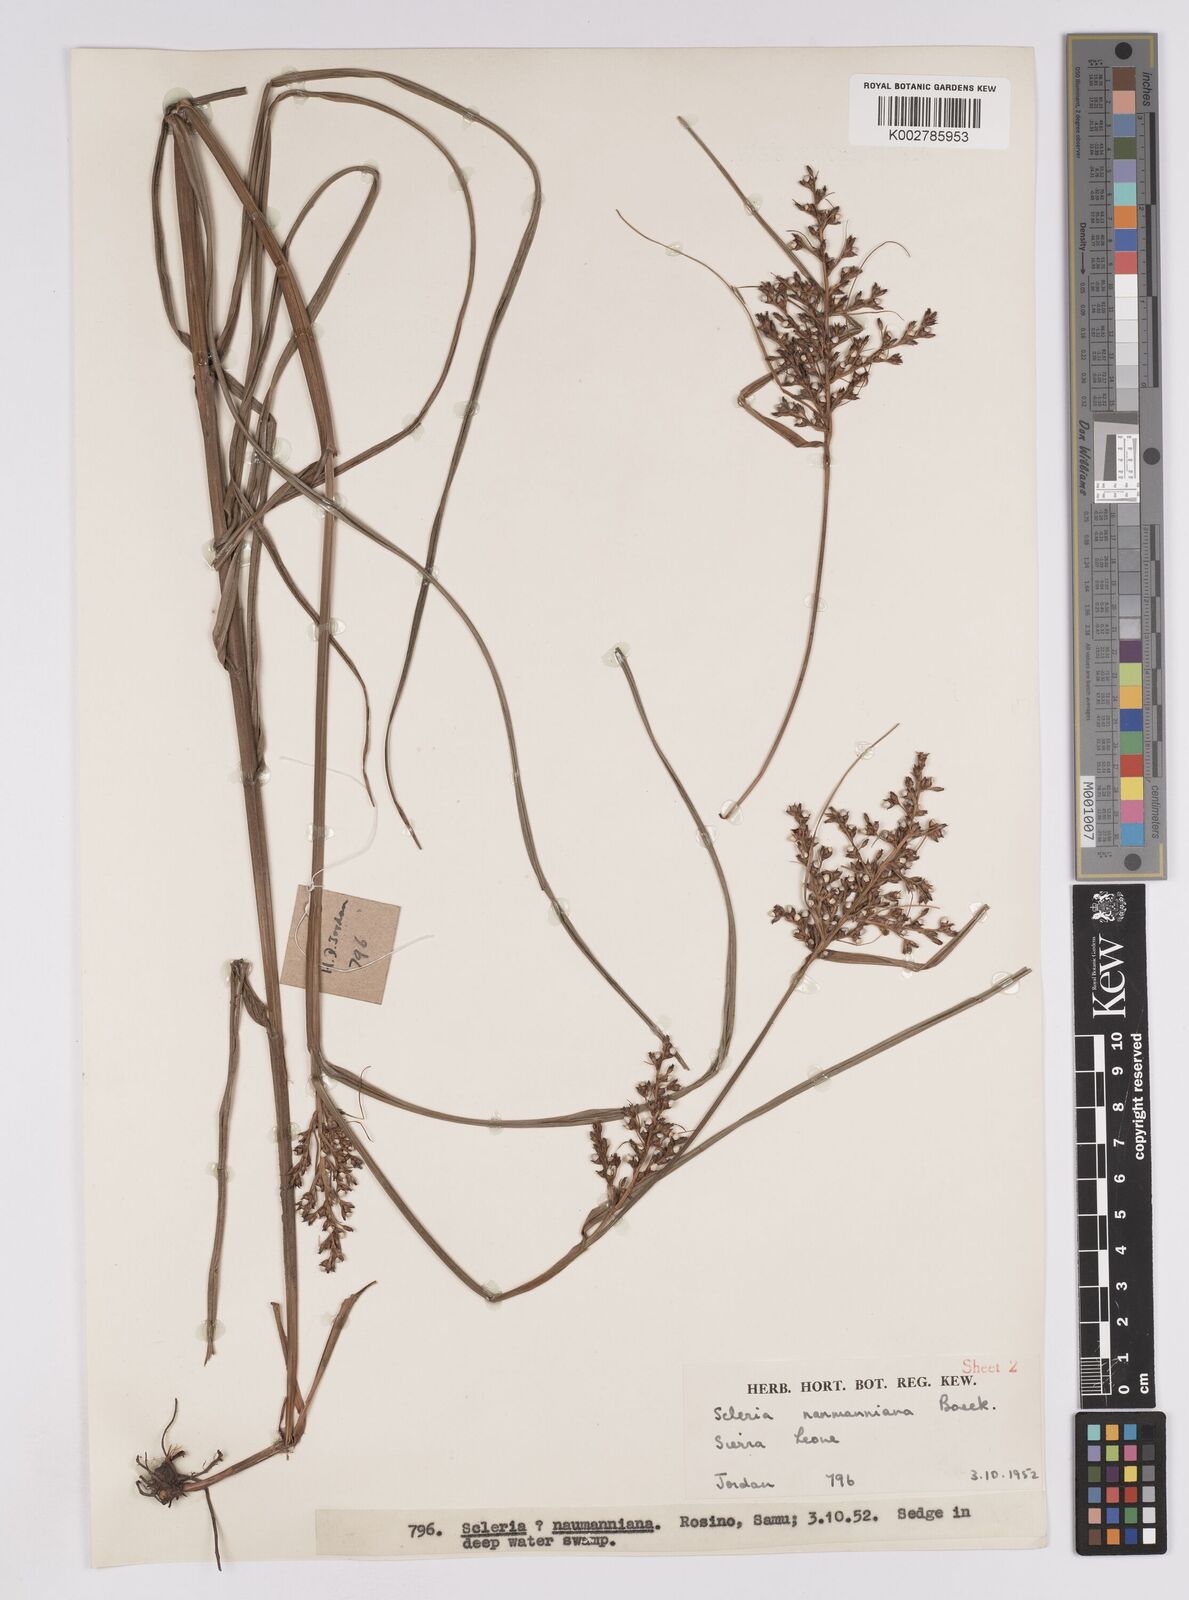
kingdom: Plantae
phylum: Tracheophyta
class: Liliopsida
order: Poales
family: Cyperaceae
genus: Scleria
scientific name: Scleria naumanniana
